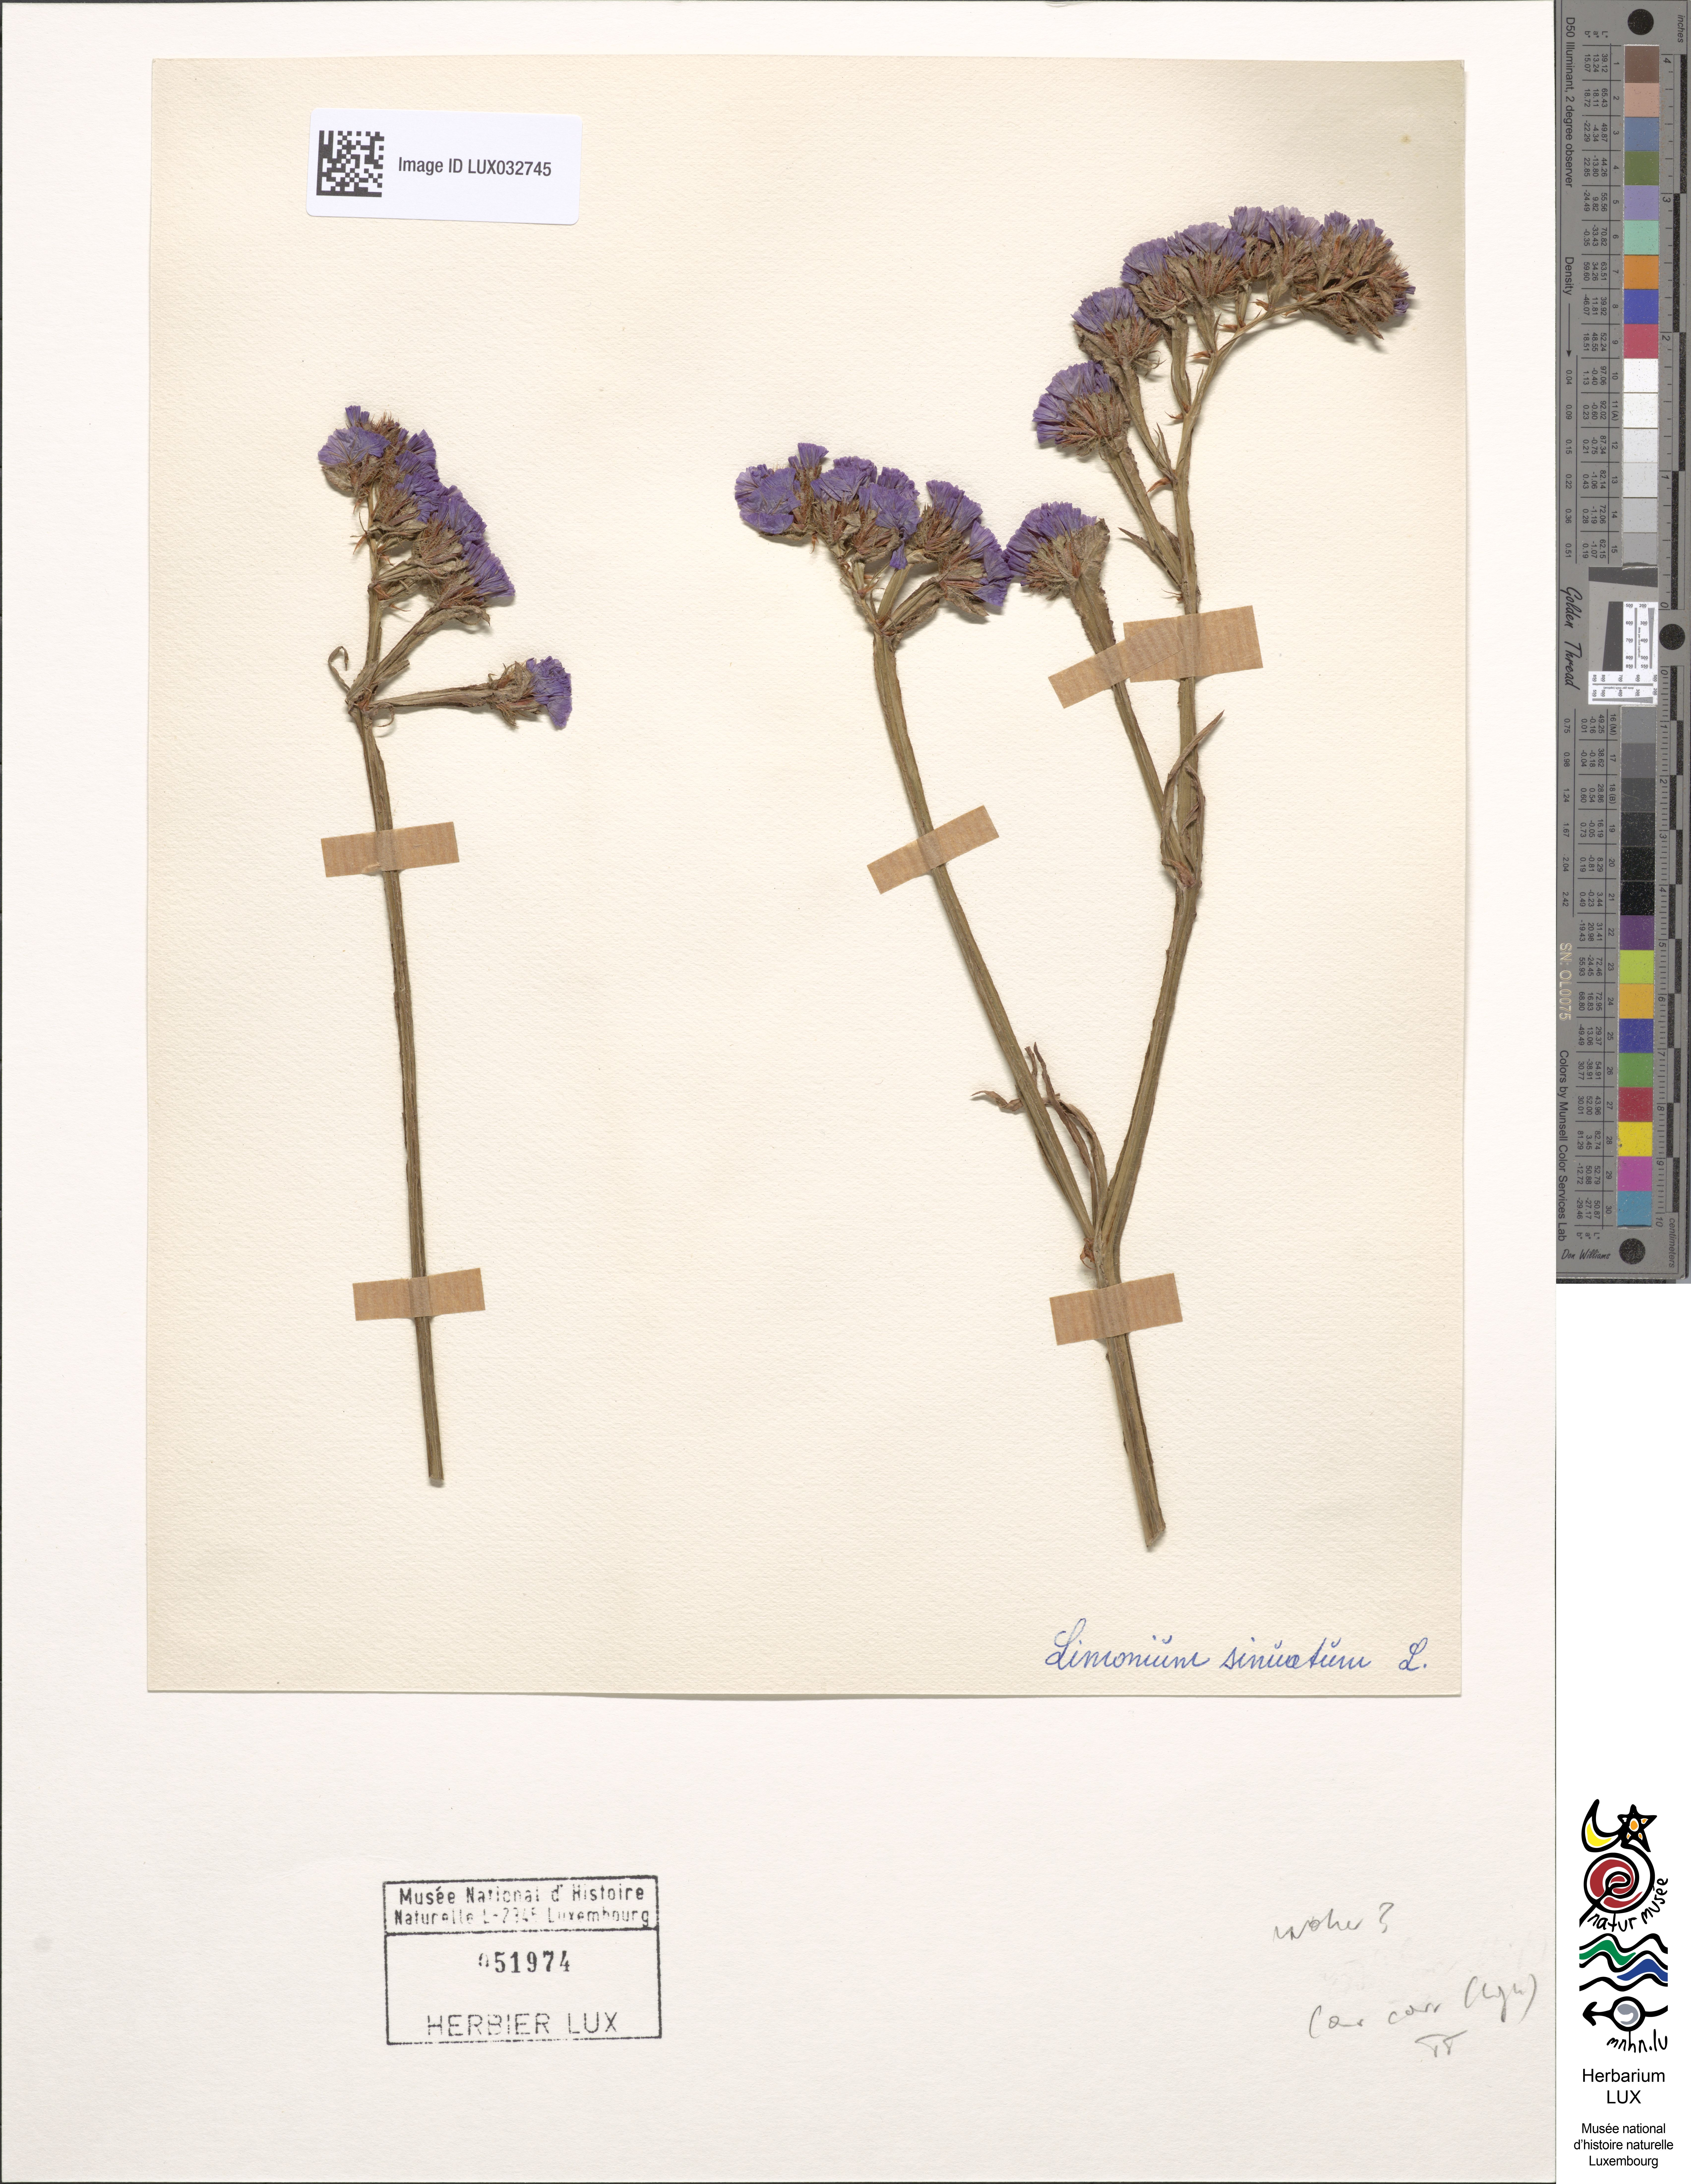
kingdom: Plantae
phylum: Tracheophyta
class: Magnoliopsida
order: Caryophyllales
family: Plumbaginaceae
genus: Limonium
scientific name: Limonium sinuatum
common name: Statice
